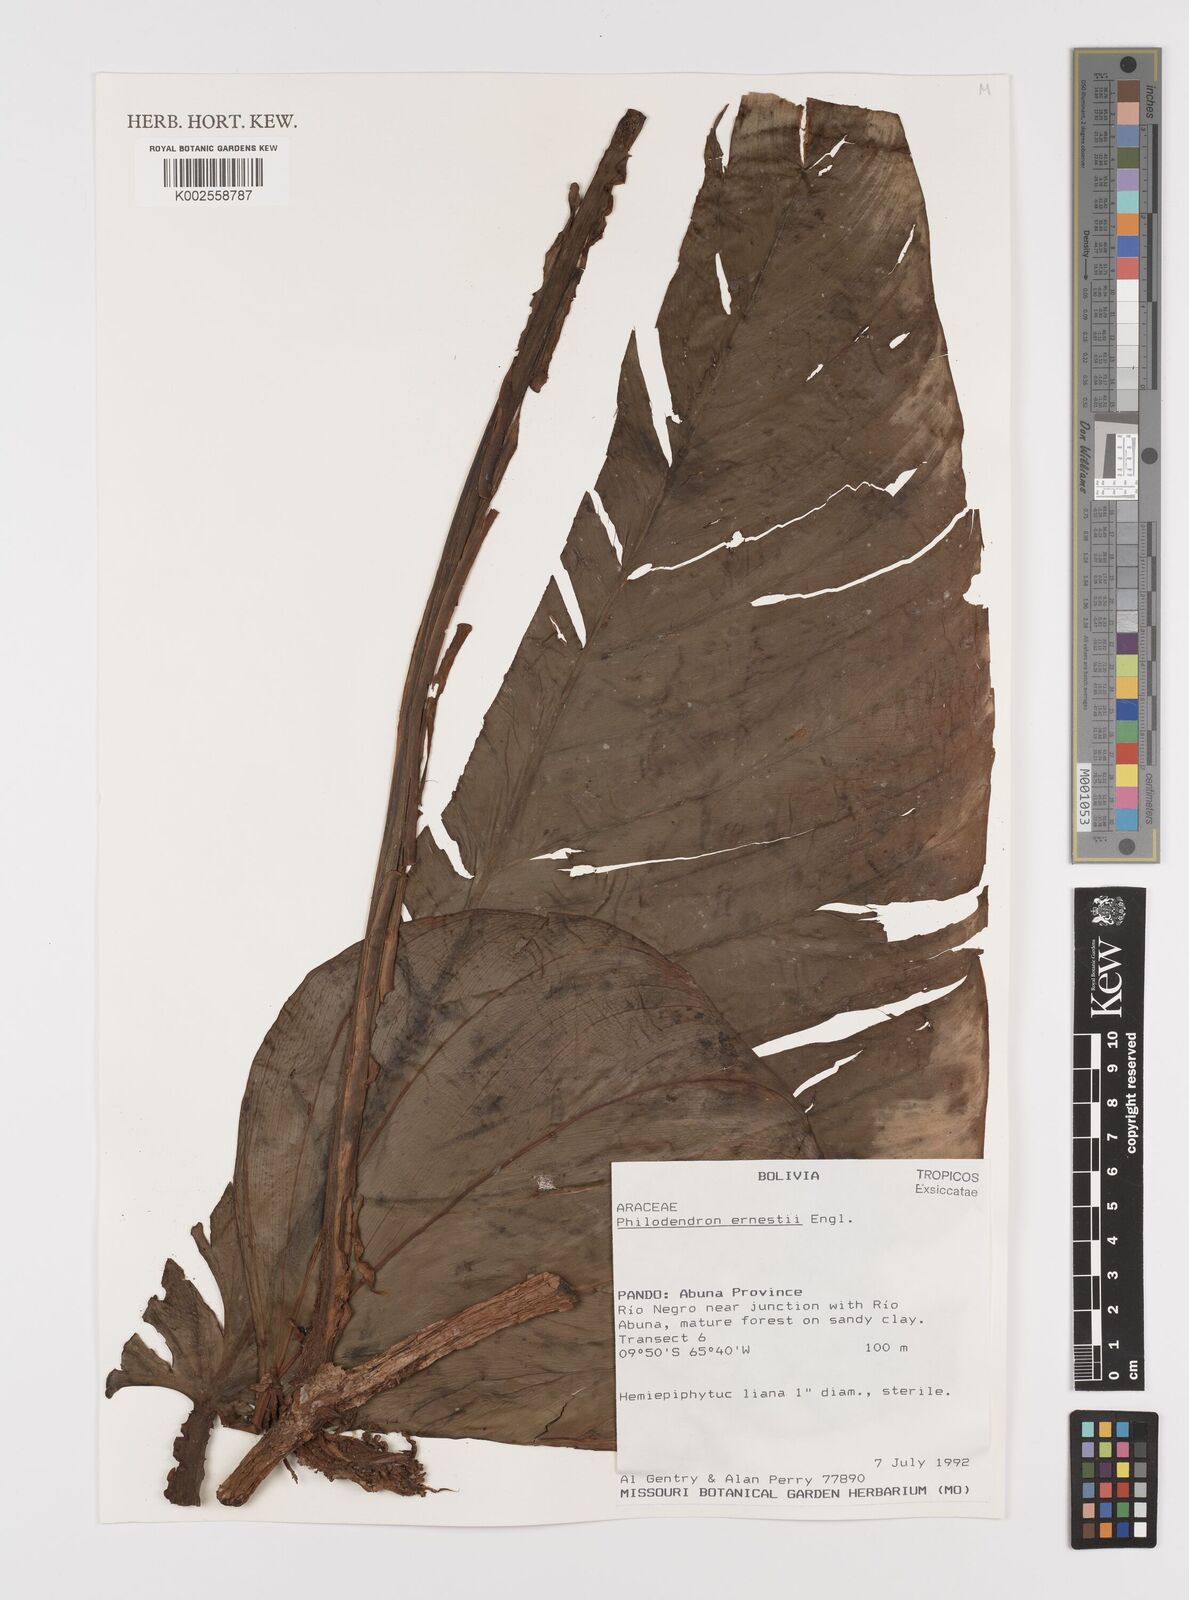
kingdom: Plantae
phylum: Tracheophyta
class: Liliopsida
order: Alismatales
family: Araceae
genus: Philodendron
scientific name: Philodendron ernestii
